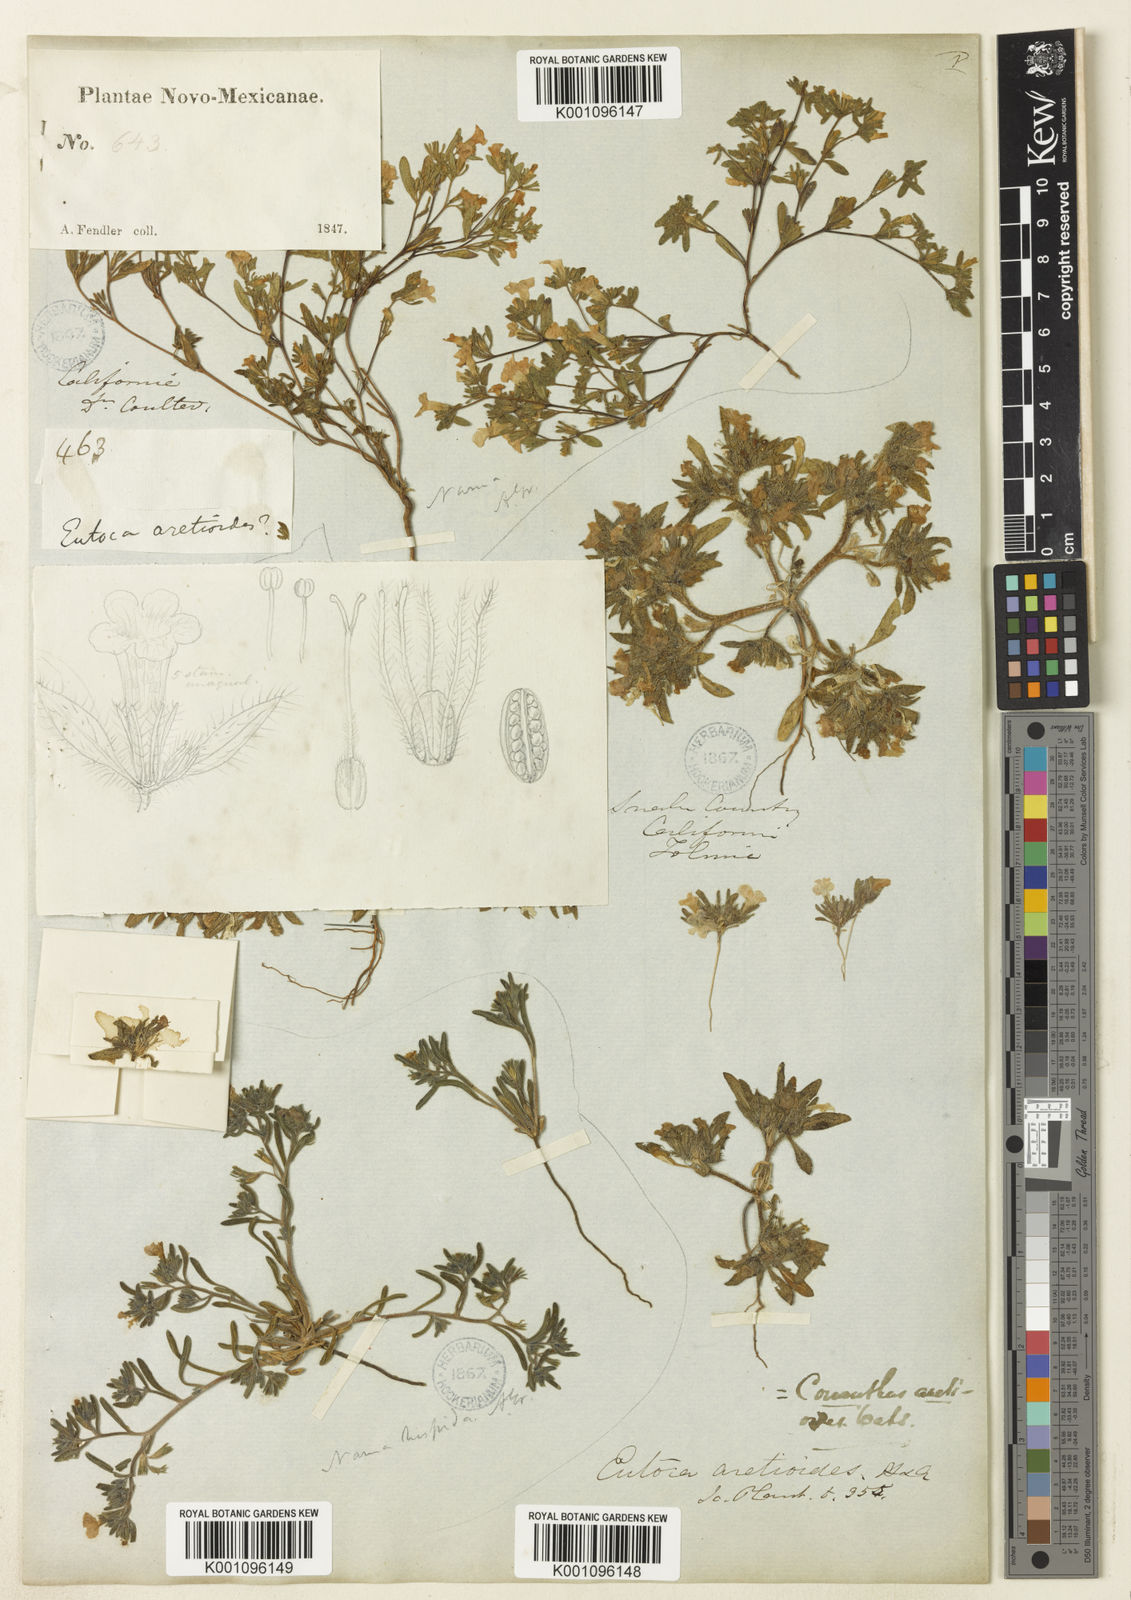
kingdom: Plantae
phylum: Tracheophyta
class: Magnoliopsida
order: Boraginales
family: Namaceae
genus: Nama
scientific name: Nama aretioides
